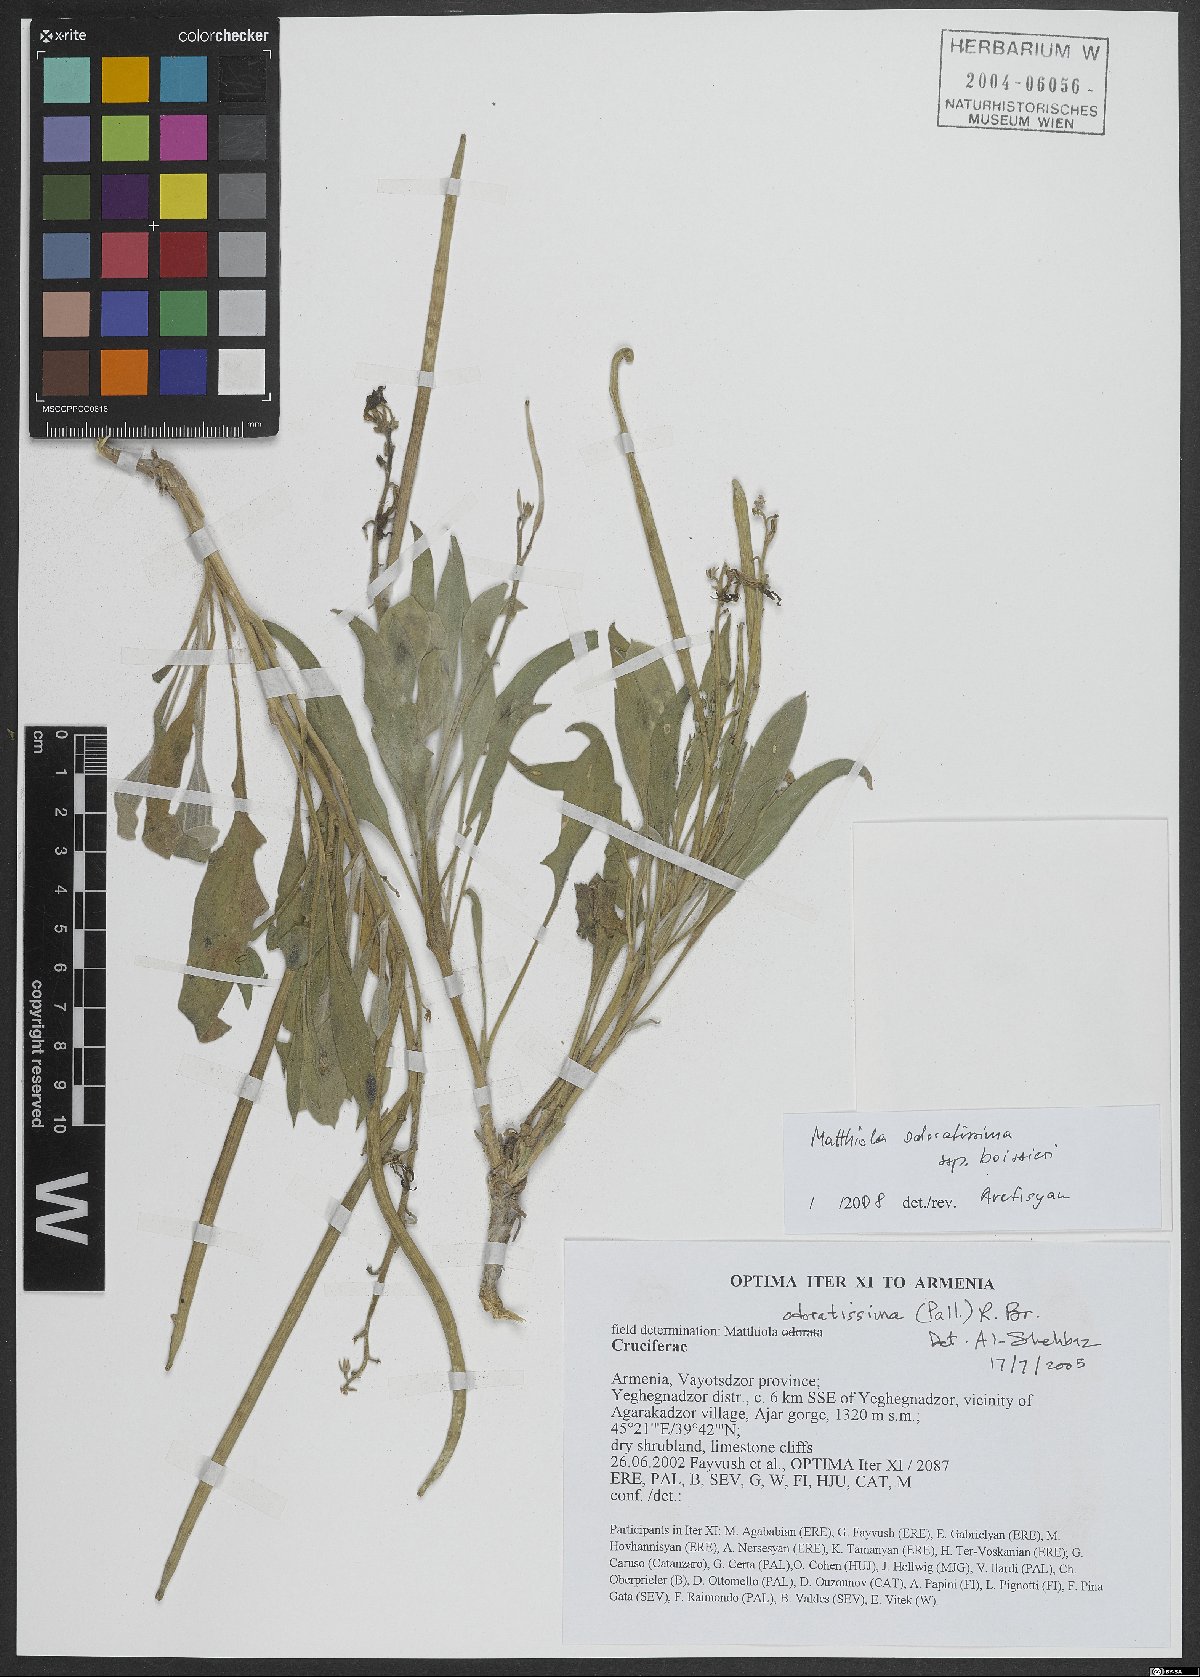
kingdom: Plantae
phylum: Tracheophyta
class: Magnoliopsida
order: Brassicales
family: Brassicaceae
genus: Matthiola
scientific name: Matthiola spathulata
